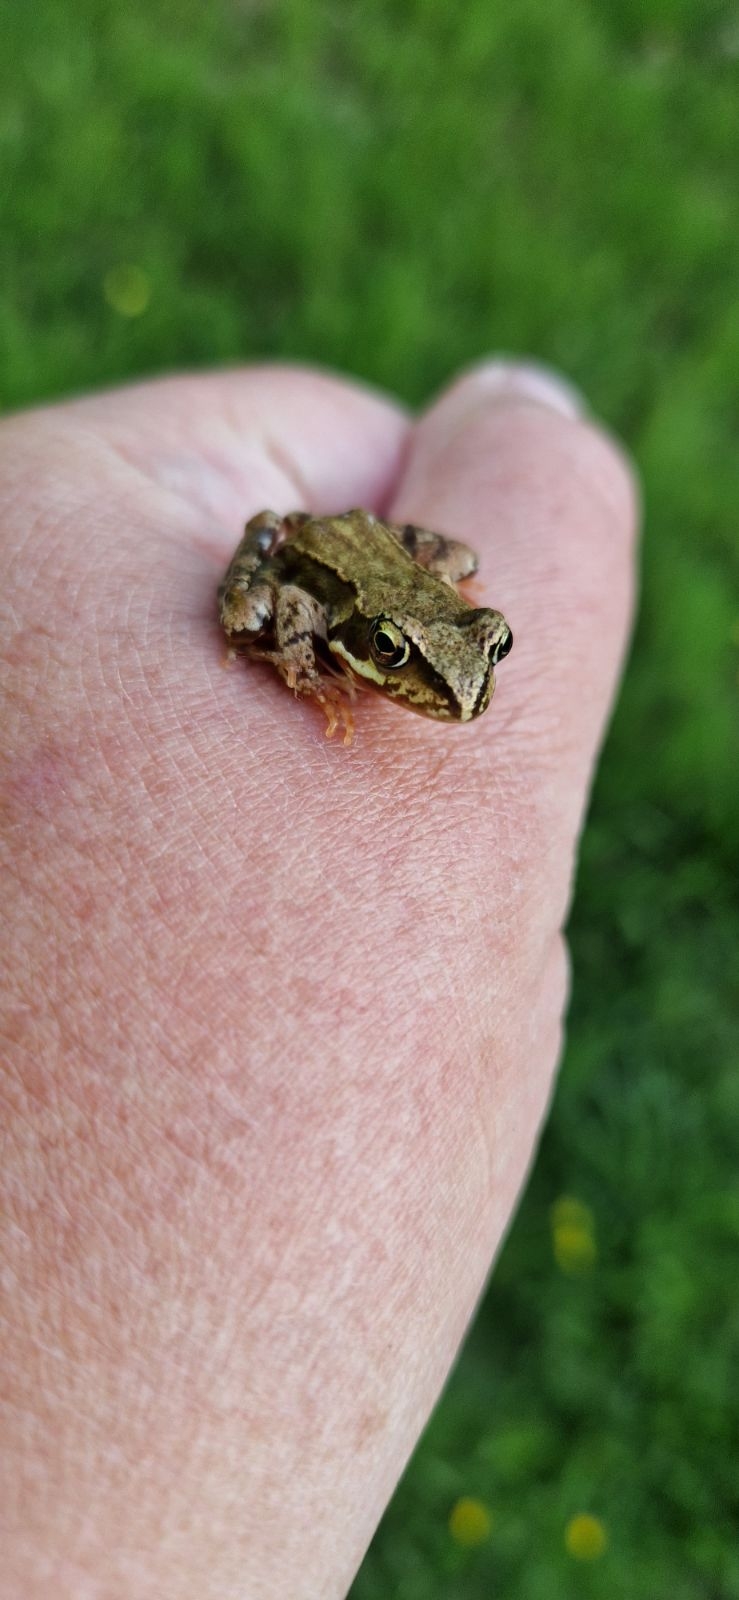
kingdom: Animalia
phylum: Chordata
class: Amphibia
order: Anura
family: Ranidae
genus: Rana
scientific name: Rana temporaria
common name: Butsnudet frø
